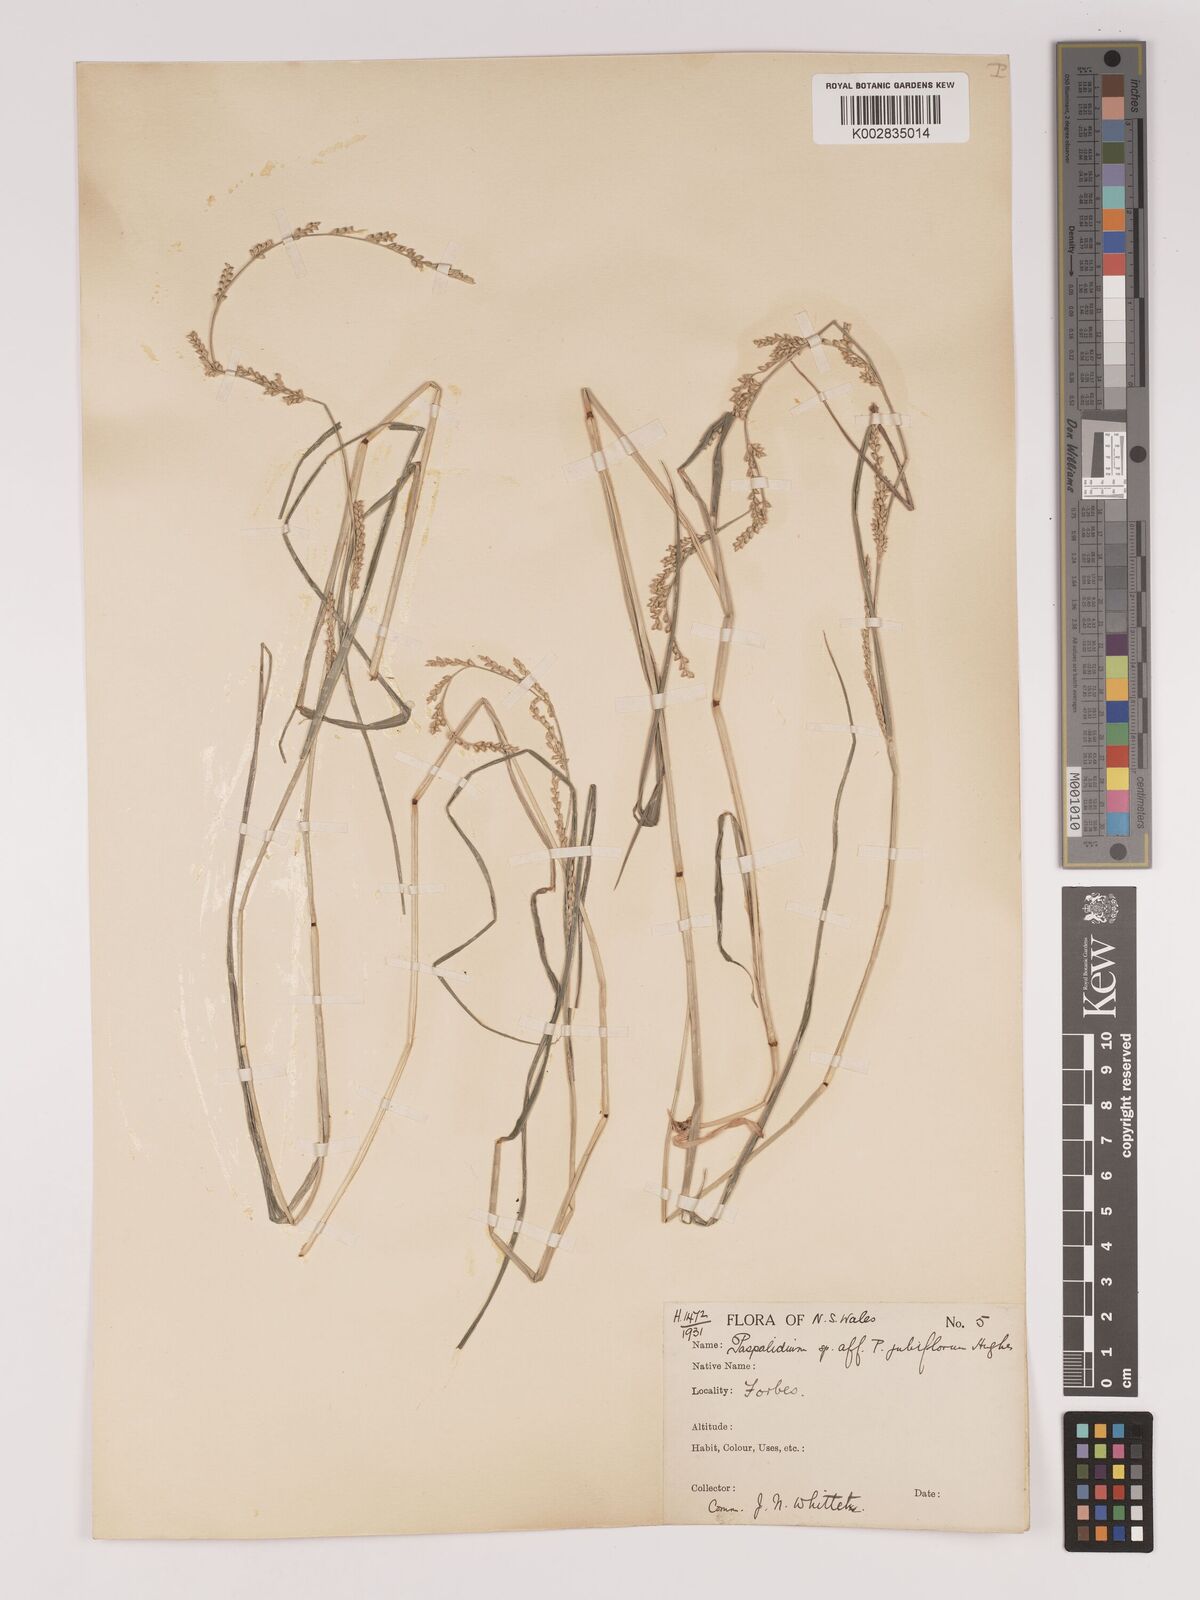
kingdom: Plantae
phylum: Tracheophyta
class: Liliopsida
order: Poales
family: Poaceae
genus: Setaria
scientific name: Setaria
